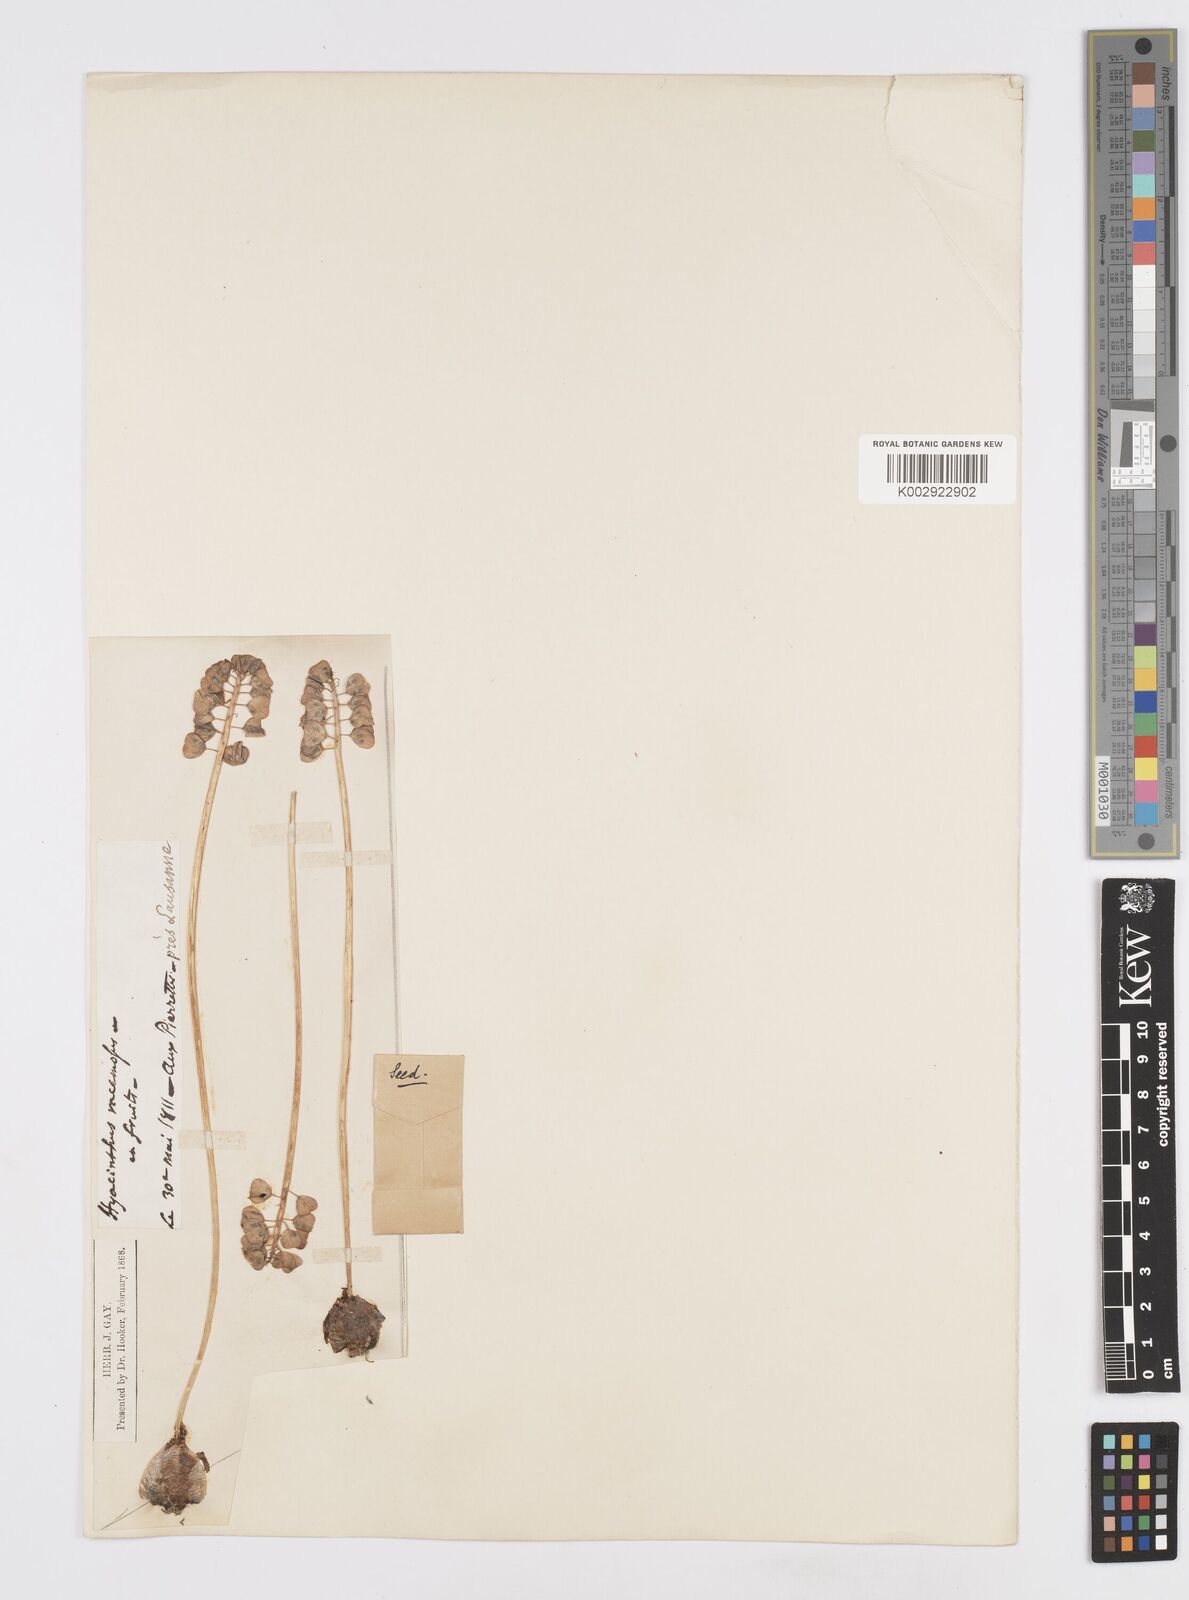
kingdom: Plantae
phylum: Tracheophyta
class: Liliopsida
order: Asparagales
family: Asparagaceae
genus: Muscarimia
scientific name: Muscarimia muscari
